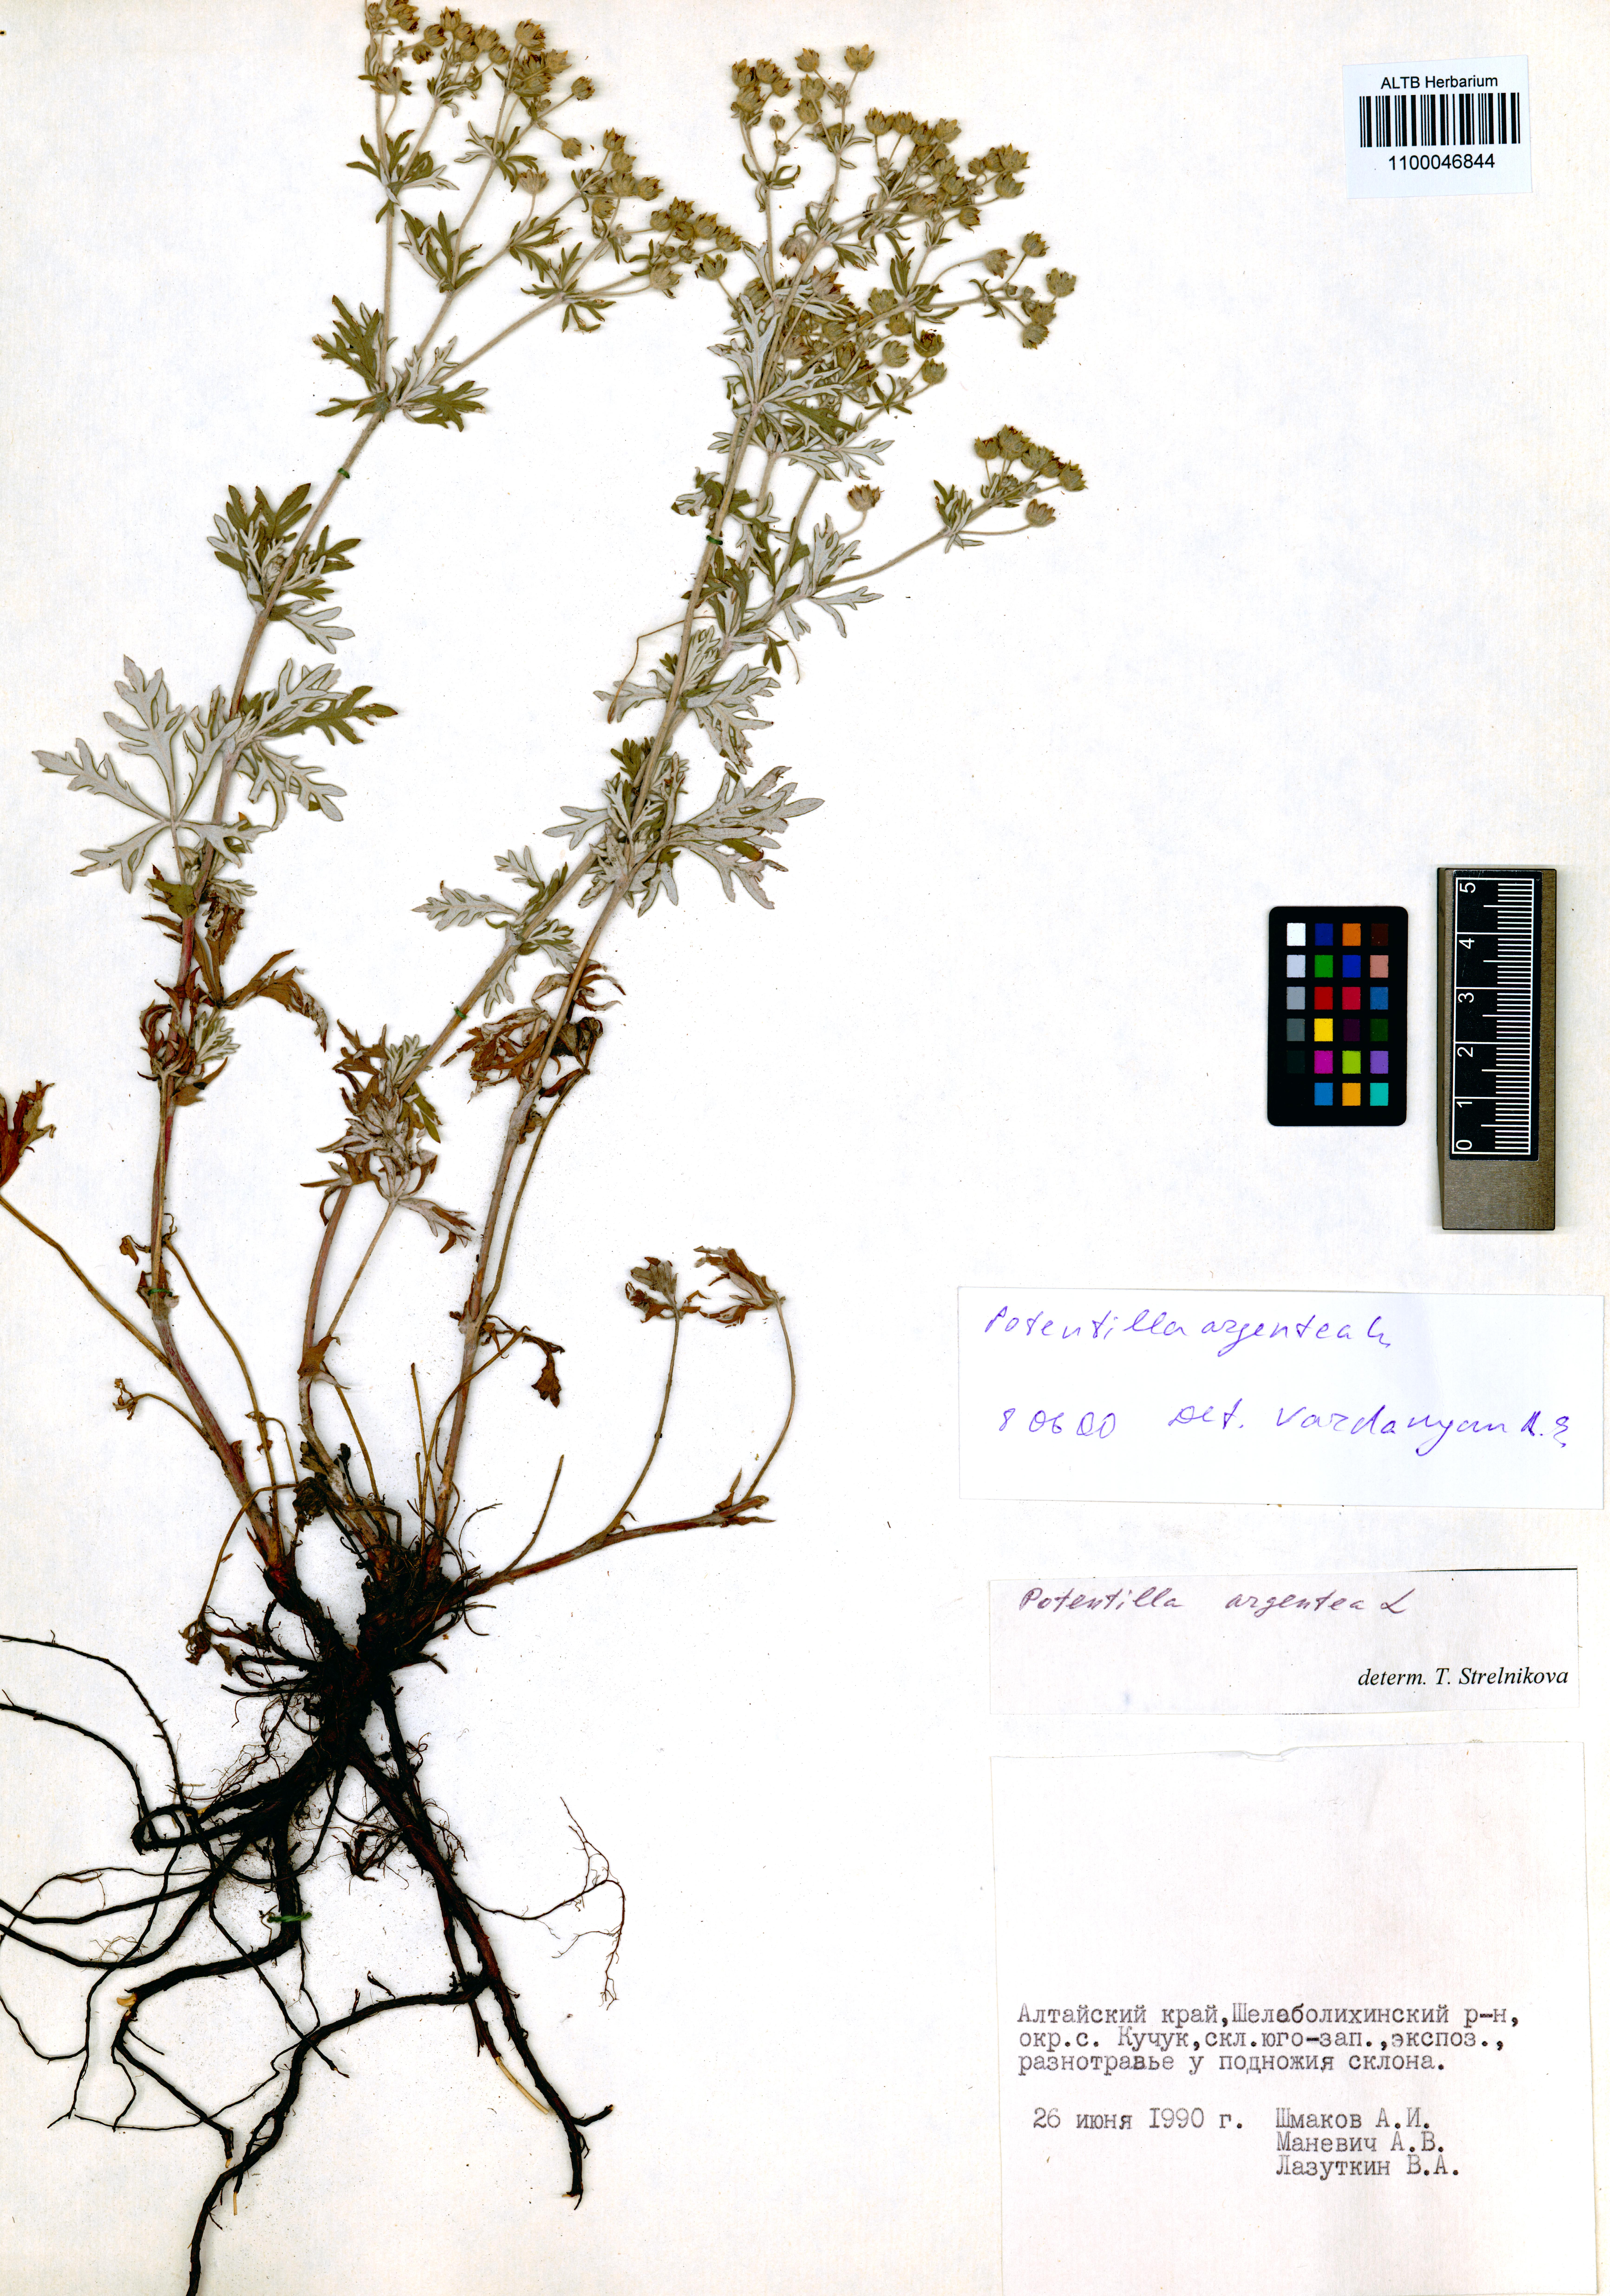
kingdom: Plantae
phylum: Tracheophyta
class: Magnoliopsida
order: Rosales
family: Rosaceae
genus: Potentilla
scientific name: Potentilla argentea
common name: Hoary cinquefoil
